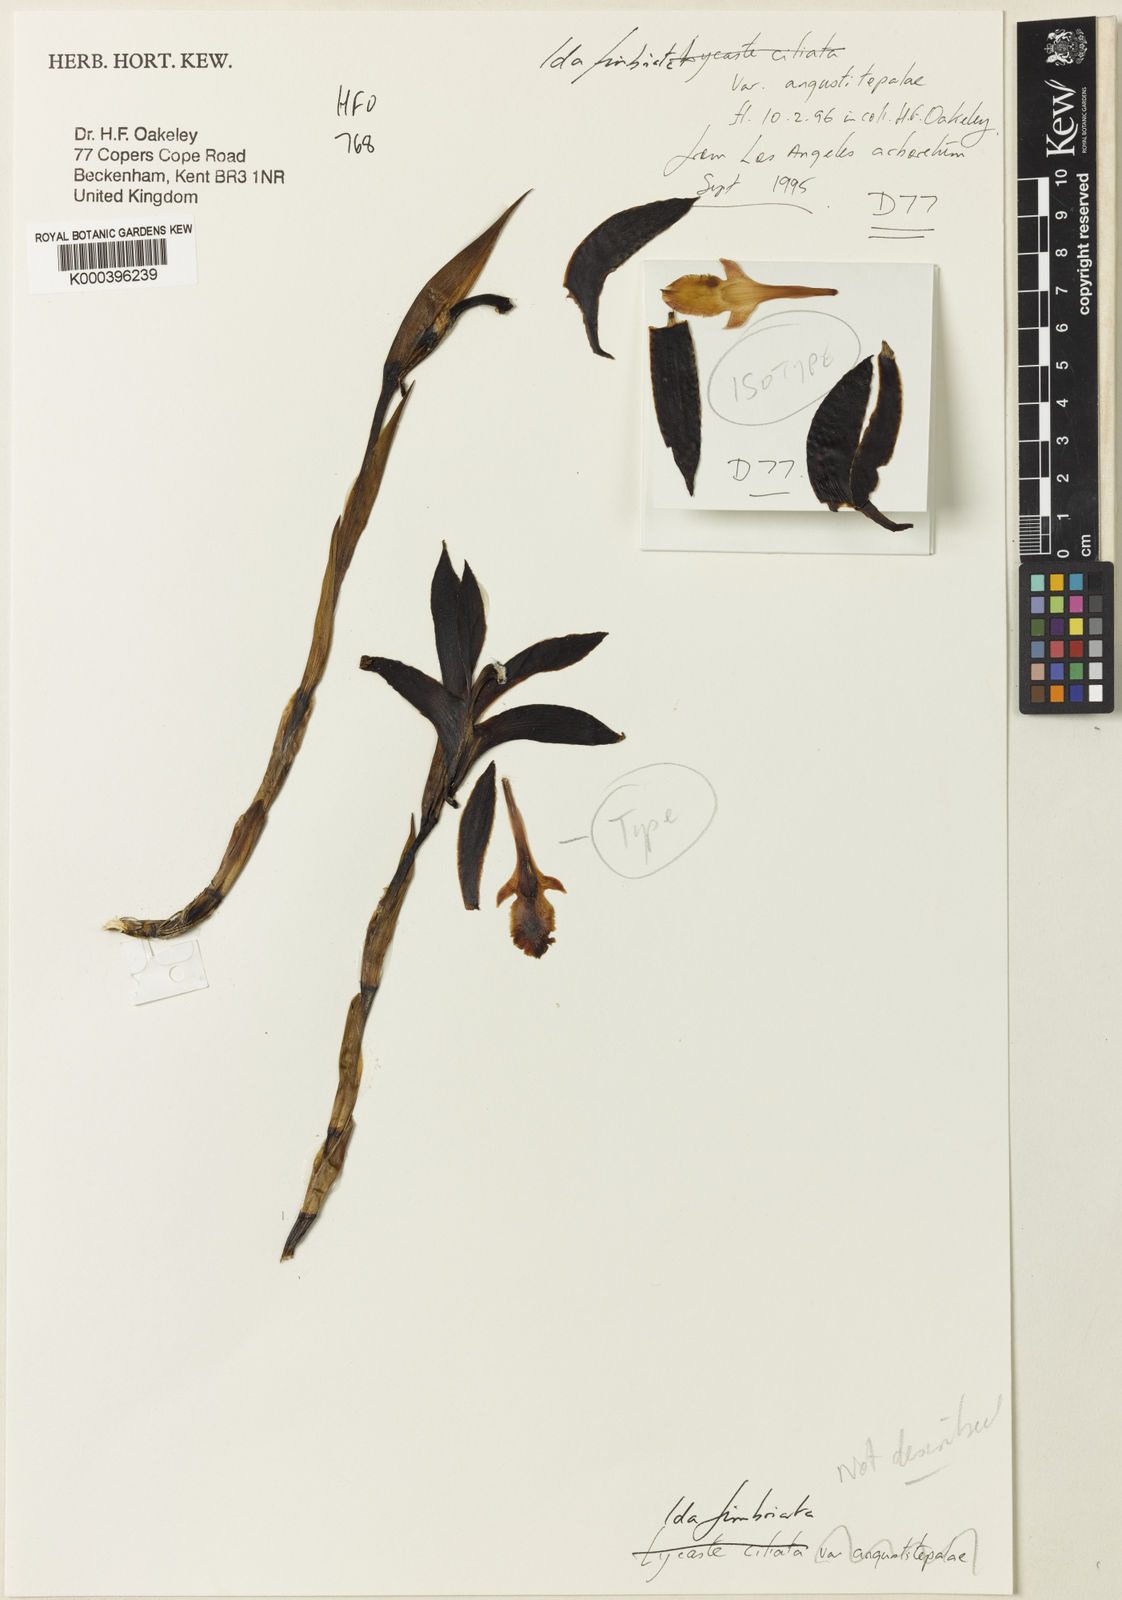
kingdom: Plantae
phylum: Tracheophyta
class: Liliopsida
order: Asparagales
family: Orchidaceae
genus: Ida
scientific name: Ida fimbriata
